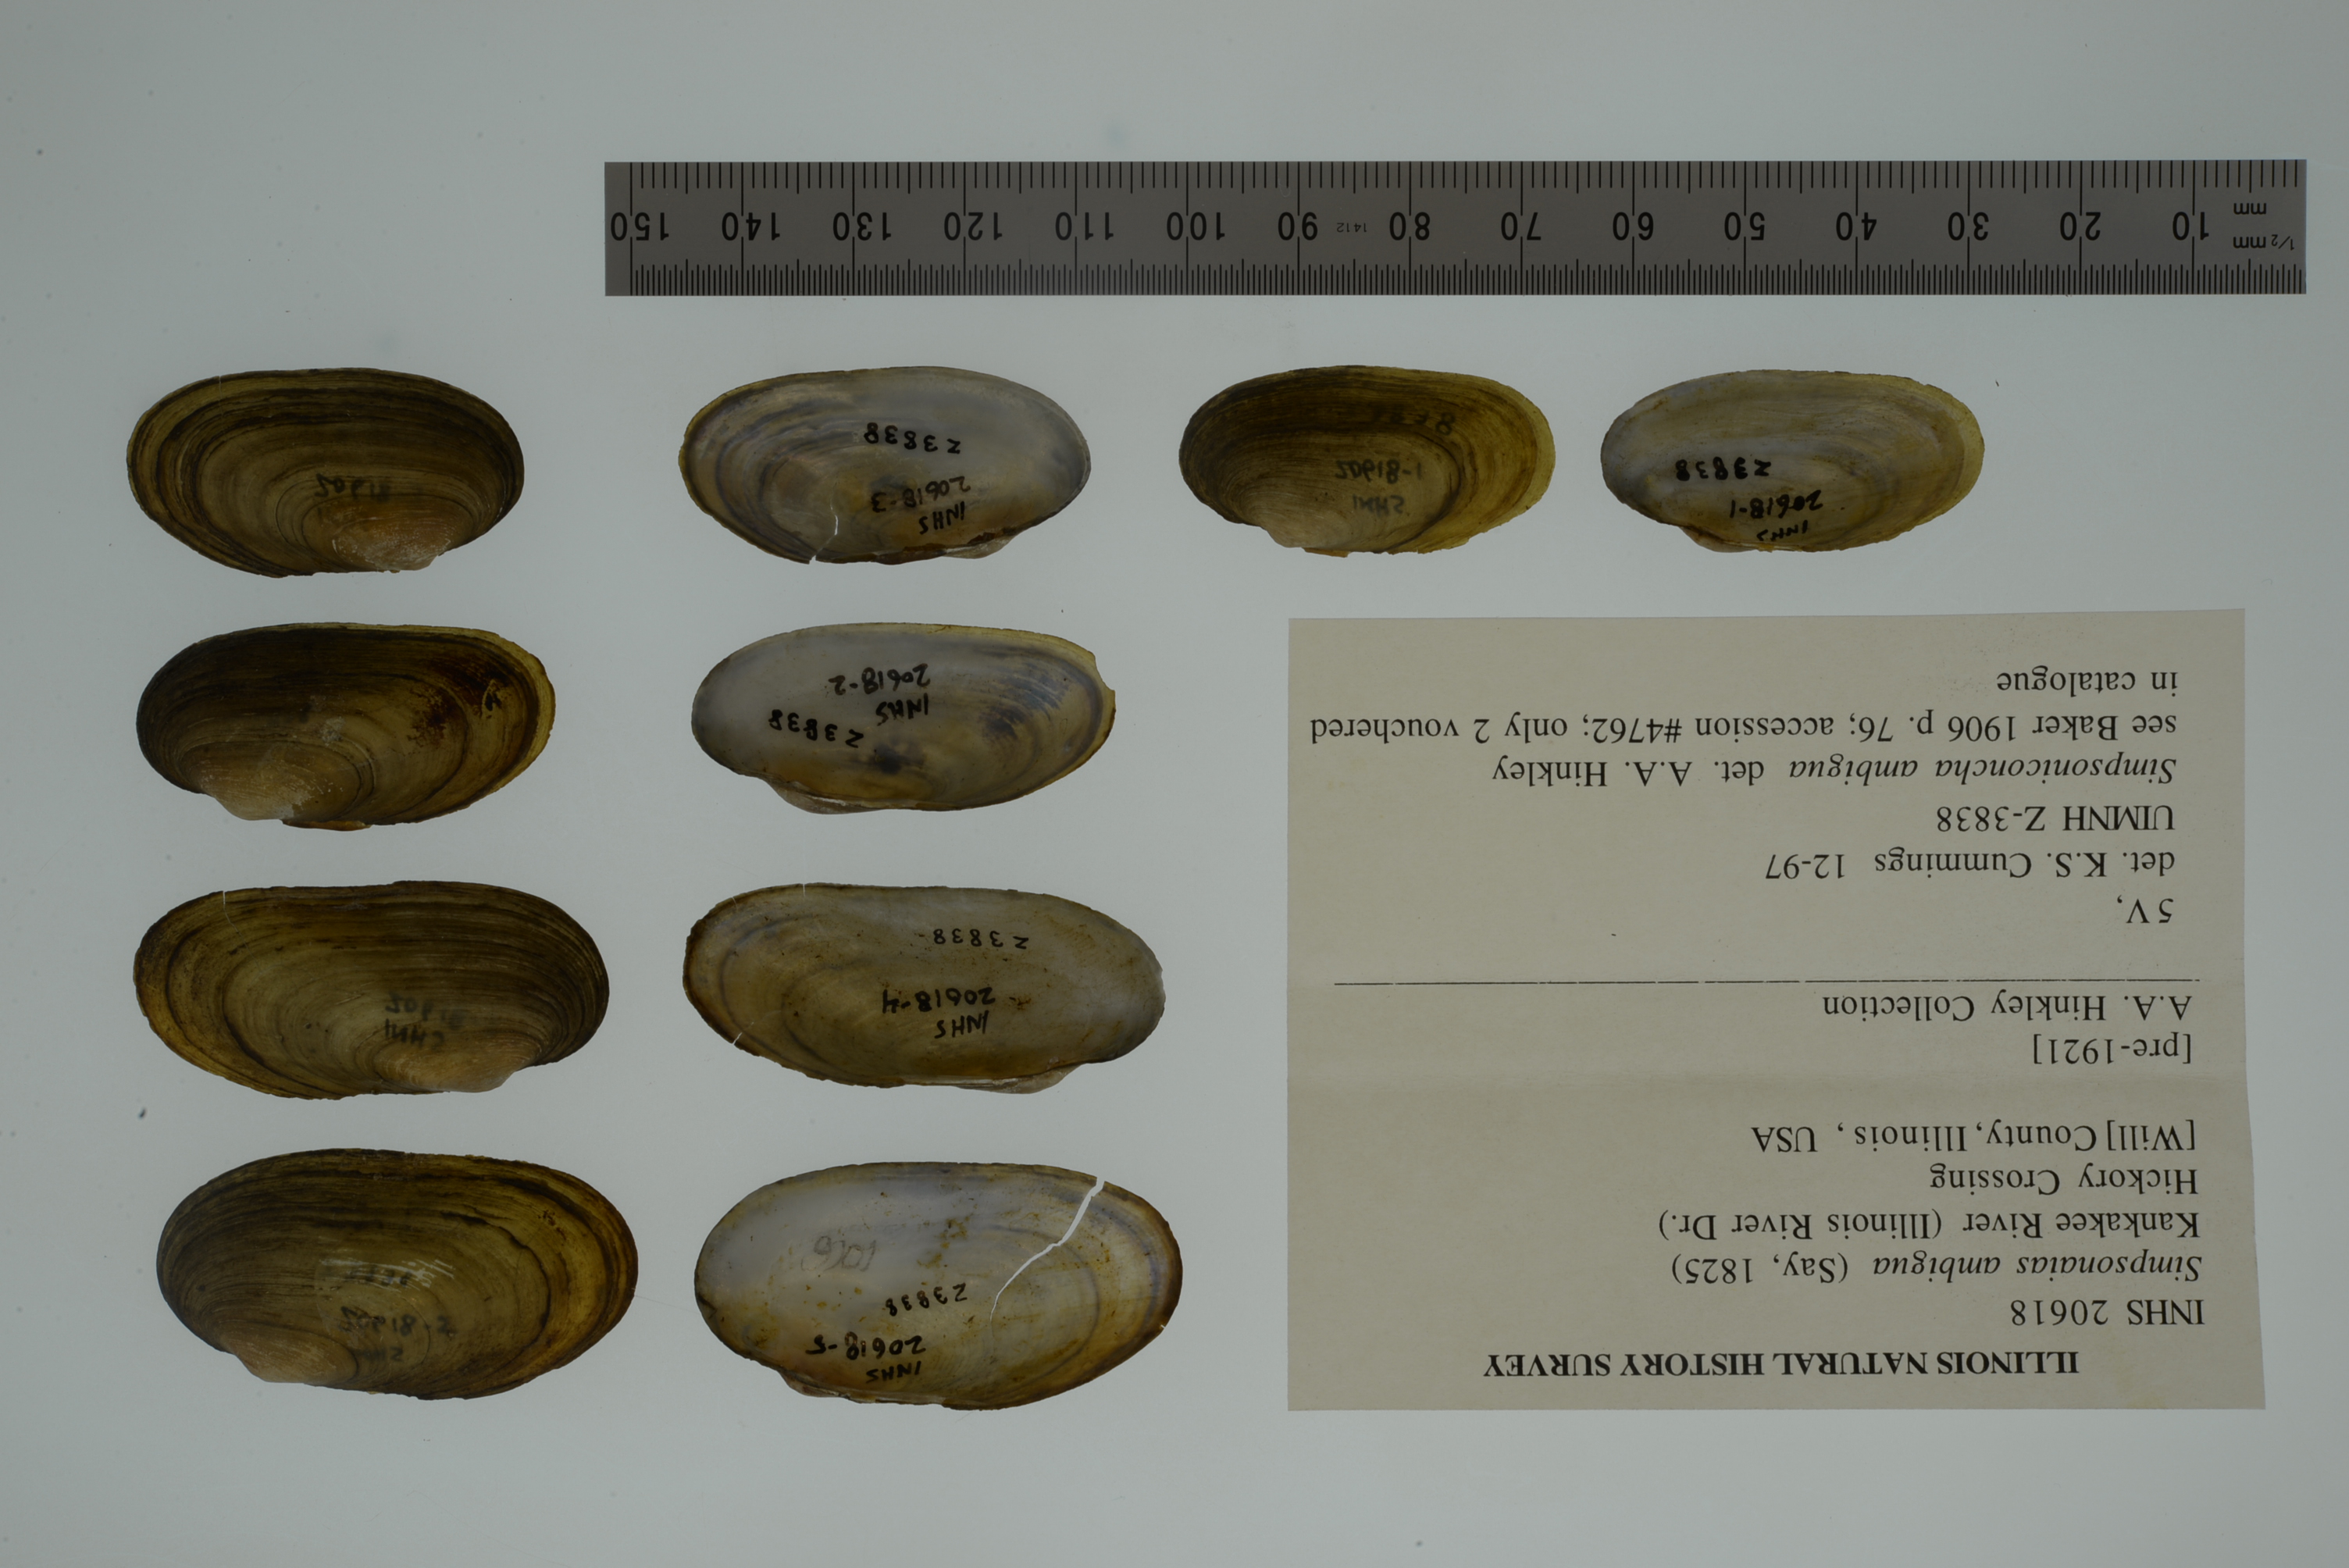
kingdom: Animalia
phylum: Mollusca
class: Bivalvia
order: Unionida
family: Unionidae
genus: Simpsonaias
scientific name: Simpsonaias ambigua
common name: Salamander mussel
